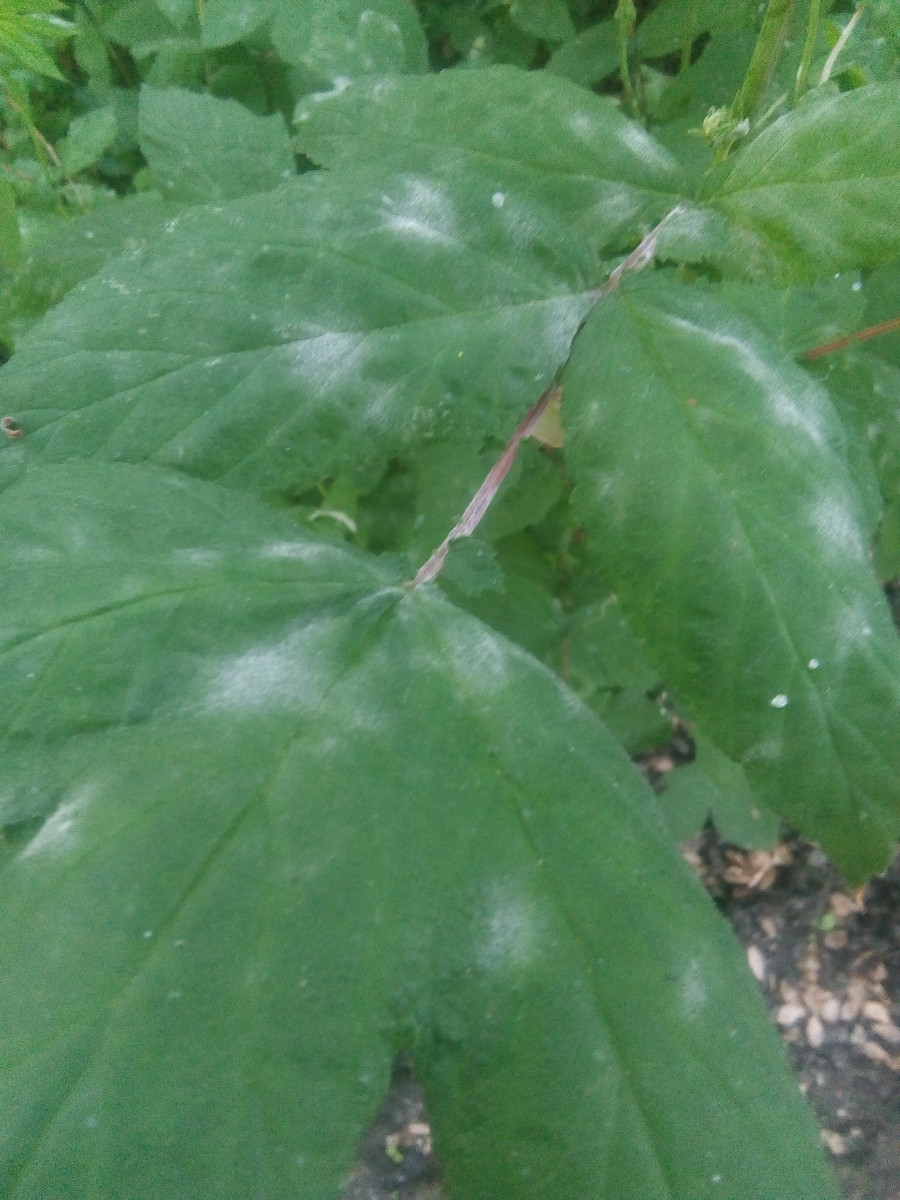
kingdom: Fungi
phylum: Ascomycota
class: Leotiomycetes
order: Helotiales
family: Erysiphaceae
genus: Podosphaera
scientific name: Podosphaera filipendulae
